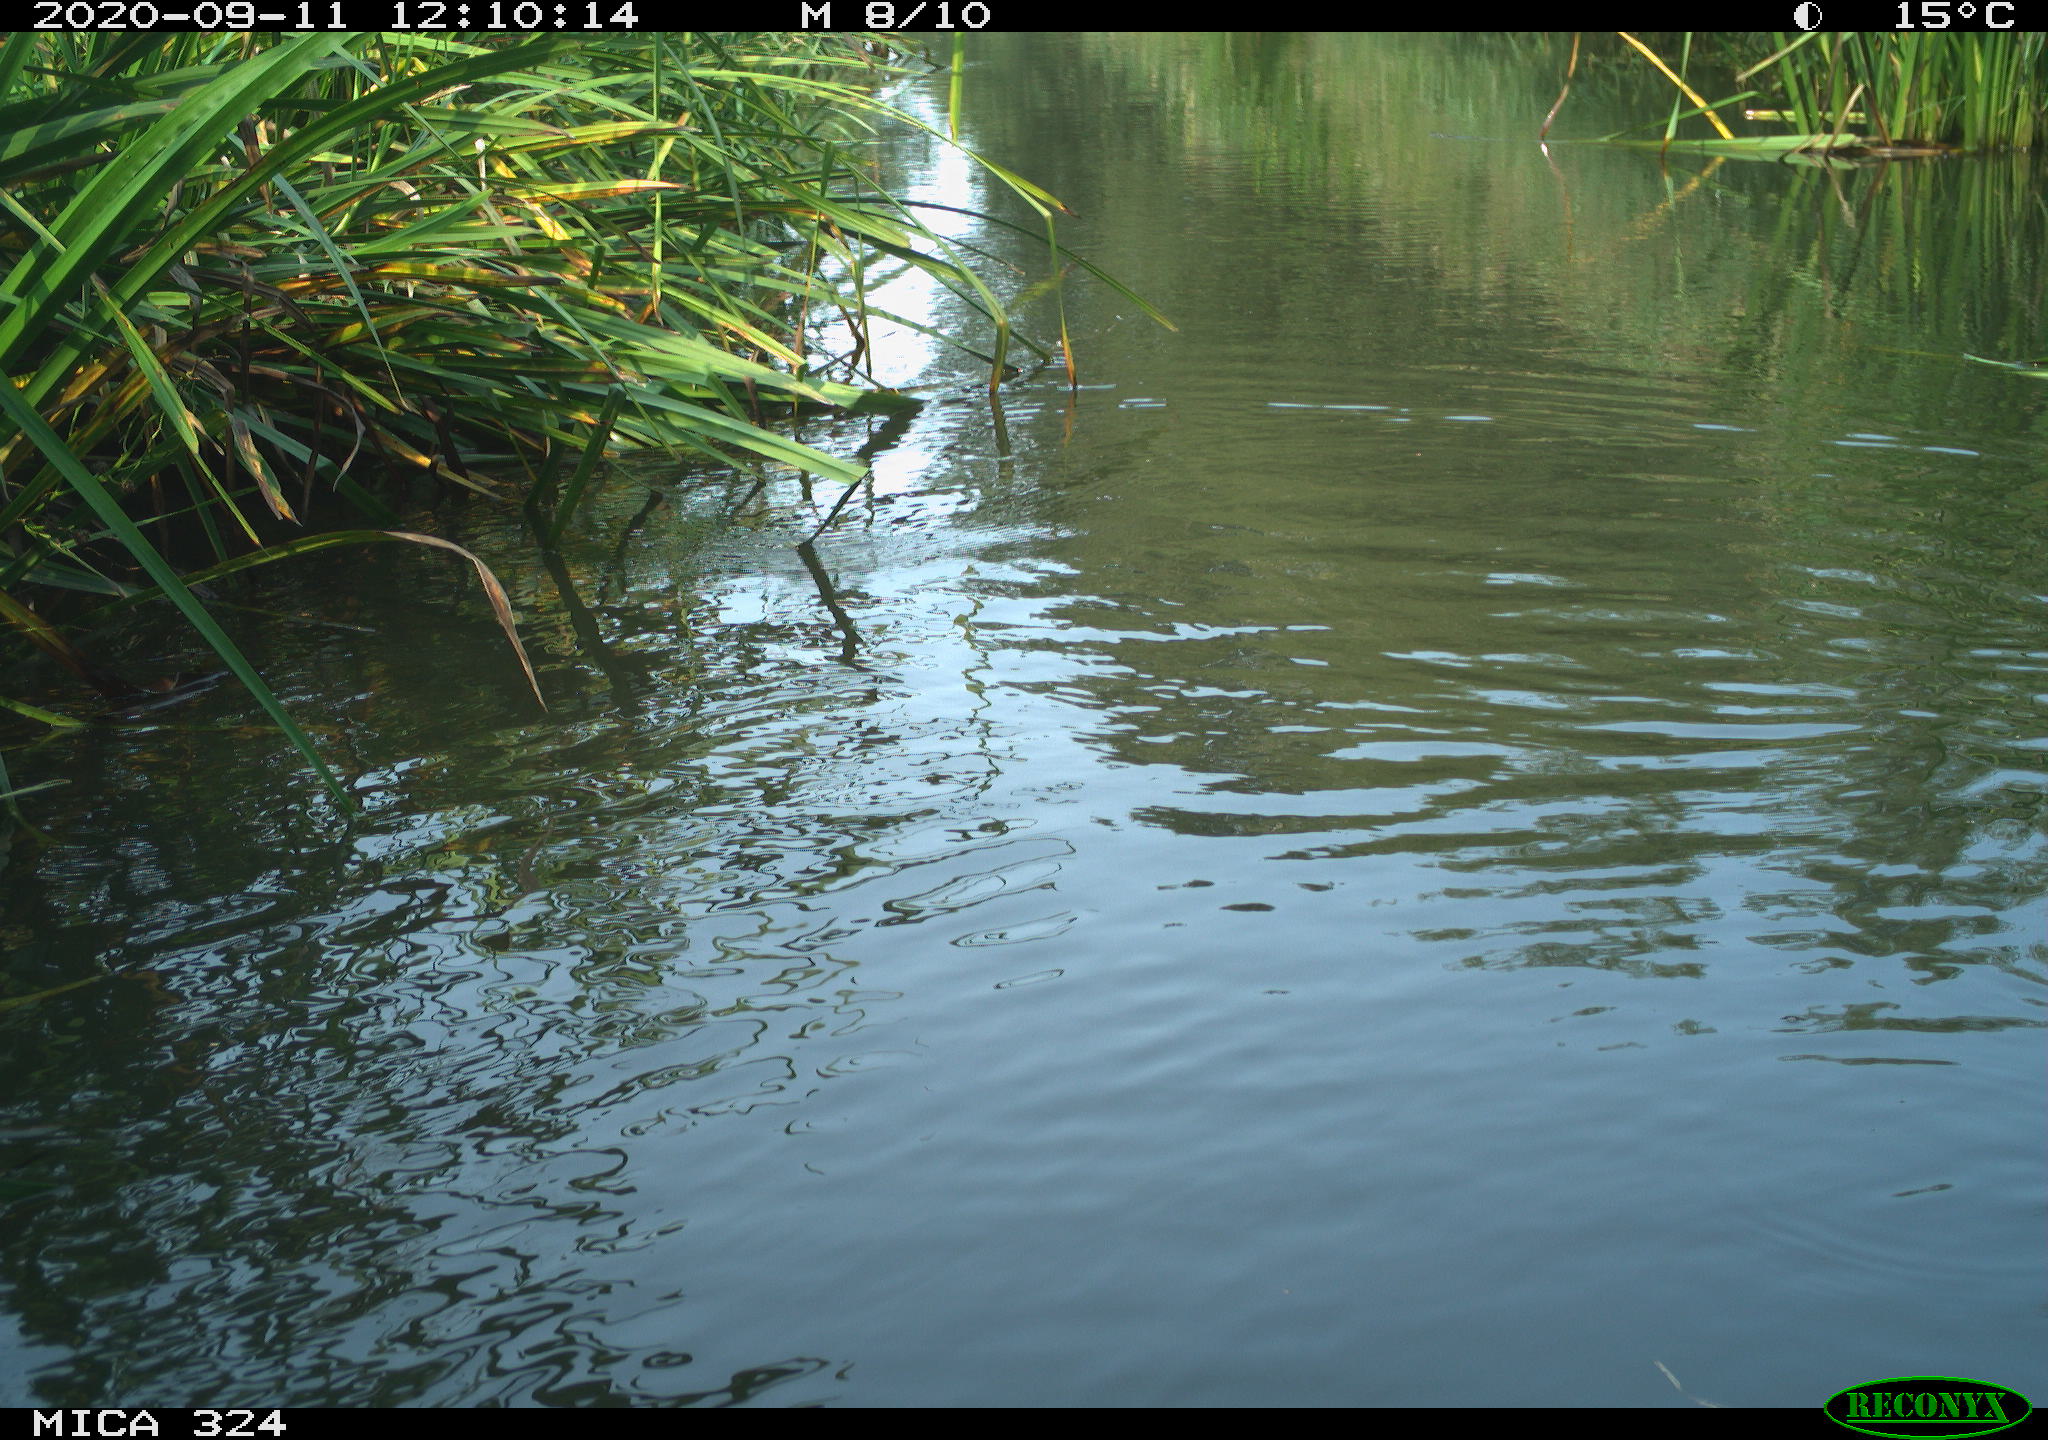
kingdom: Animalia
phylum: Chordata
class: Mammalia
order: Rodentia
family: Cricetidae
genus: Ondatra
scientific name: Ondatra zibethicus
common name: Muskrat
